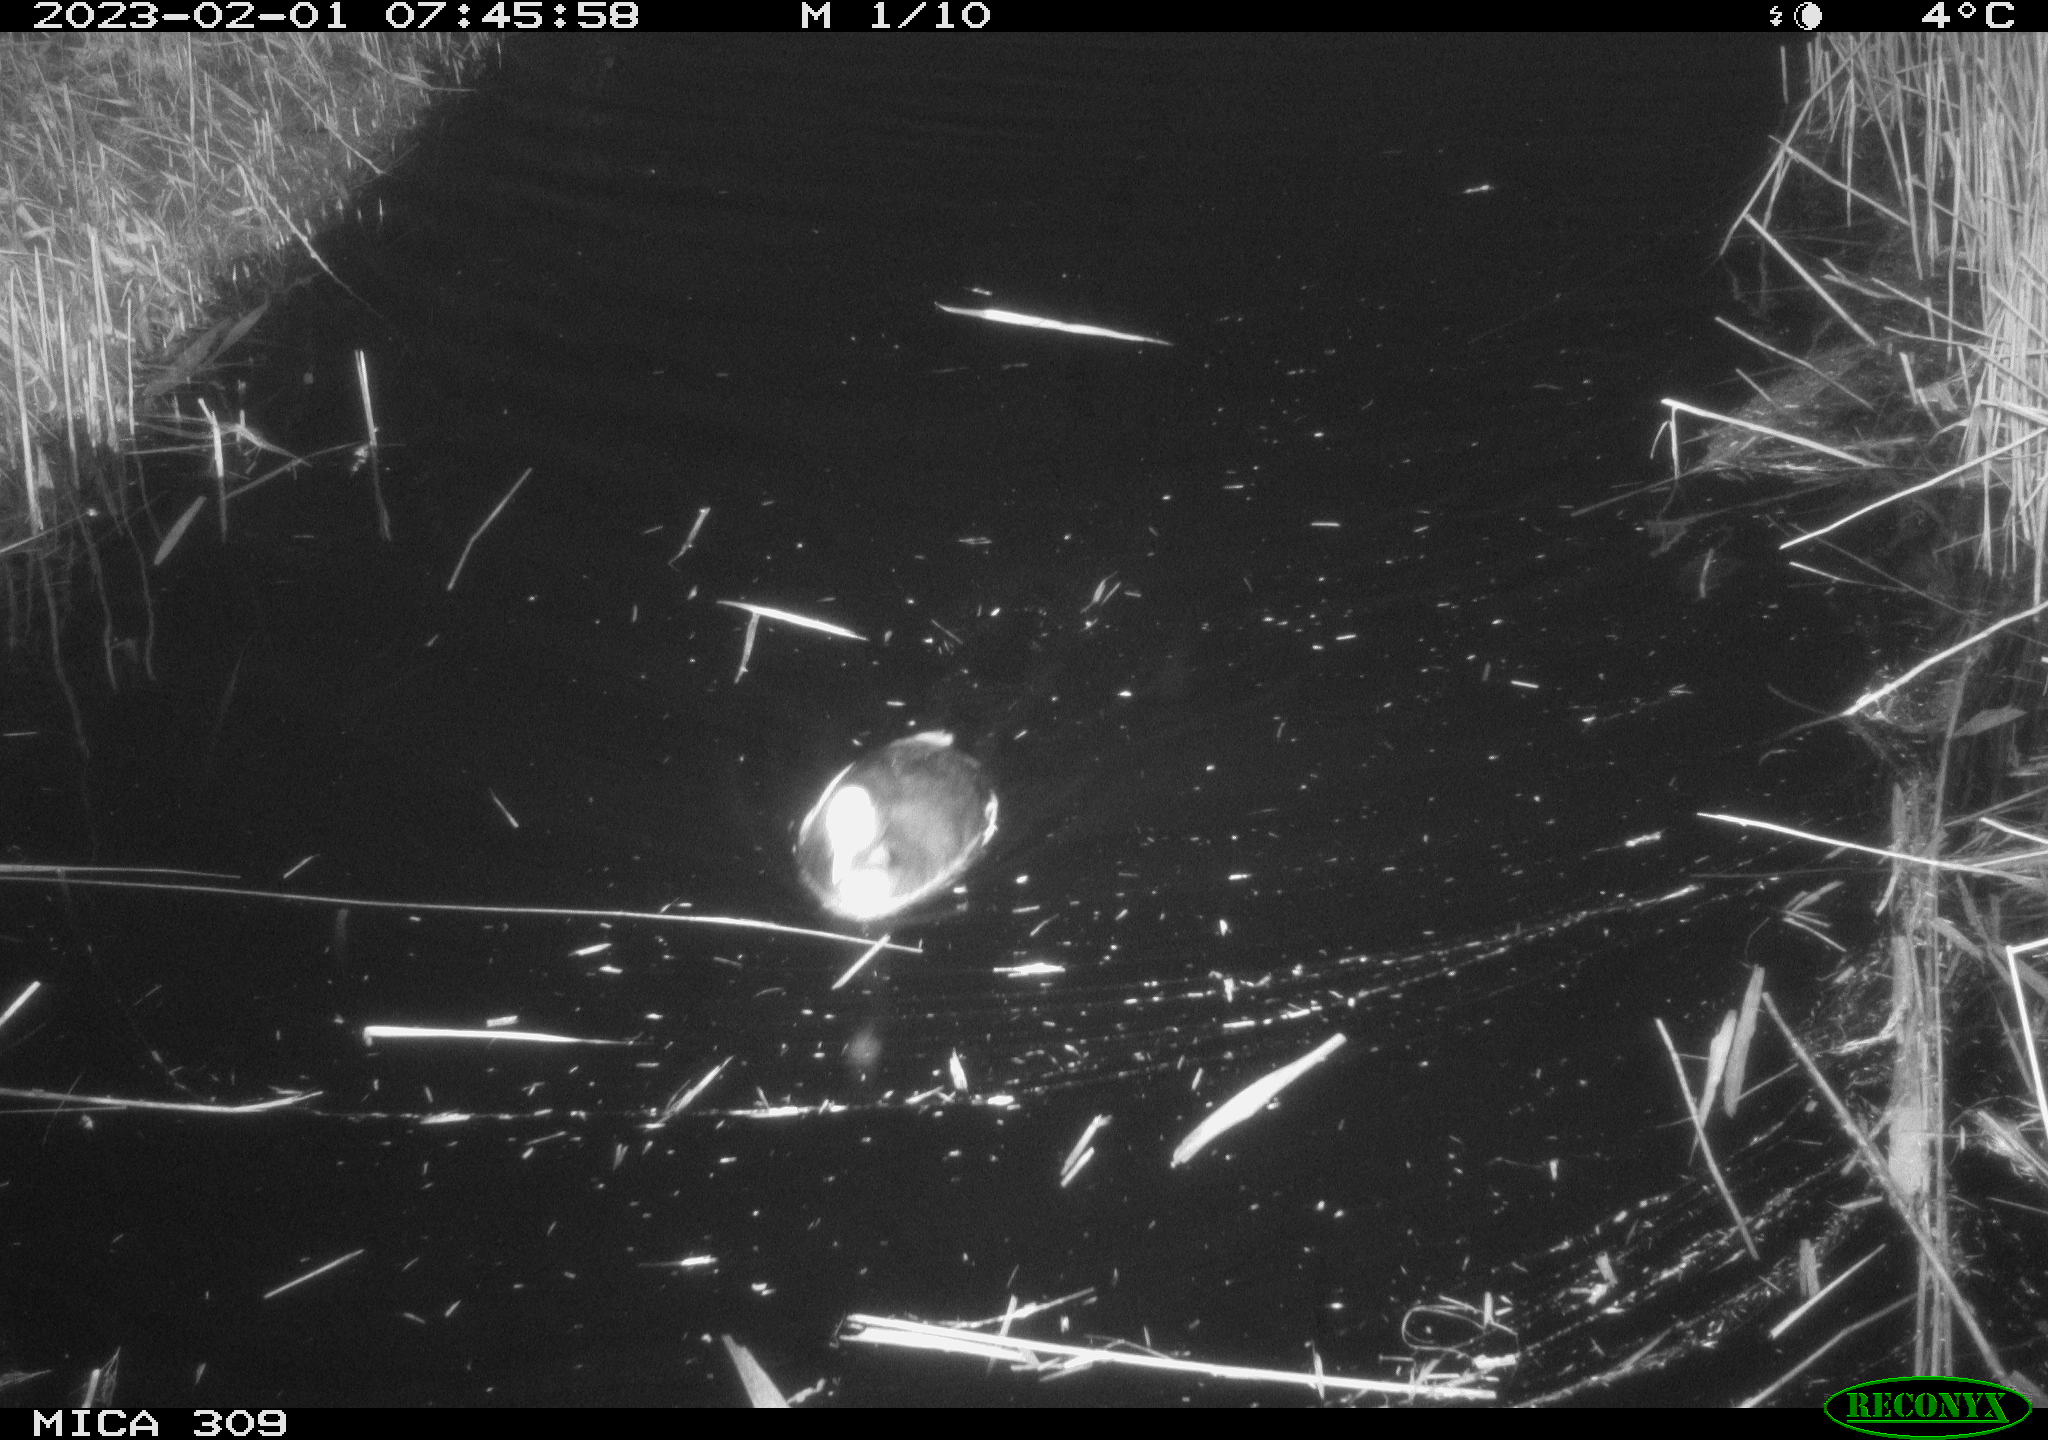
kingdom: Animalia
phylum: Chordata
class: Mammalia
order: Rodentia
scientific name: Rodentia
